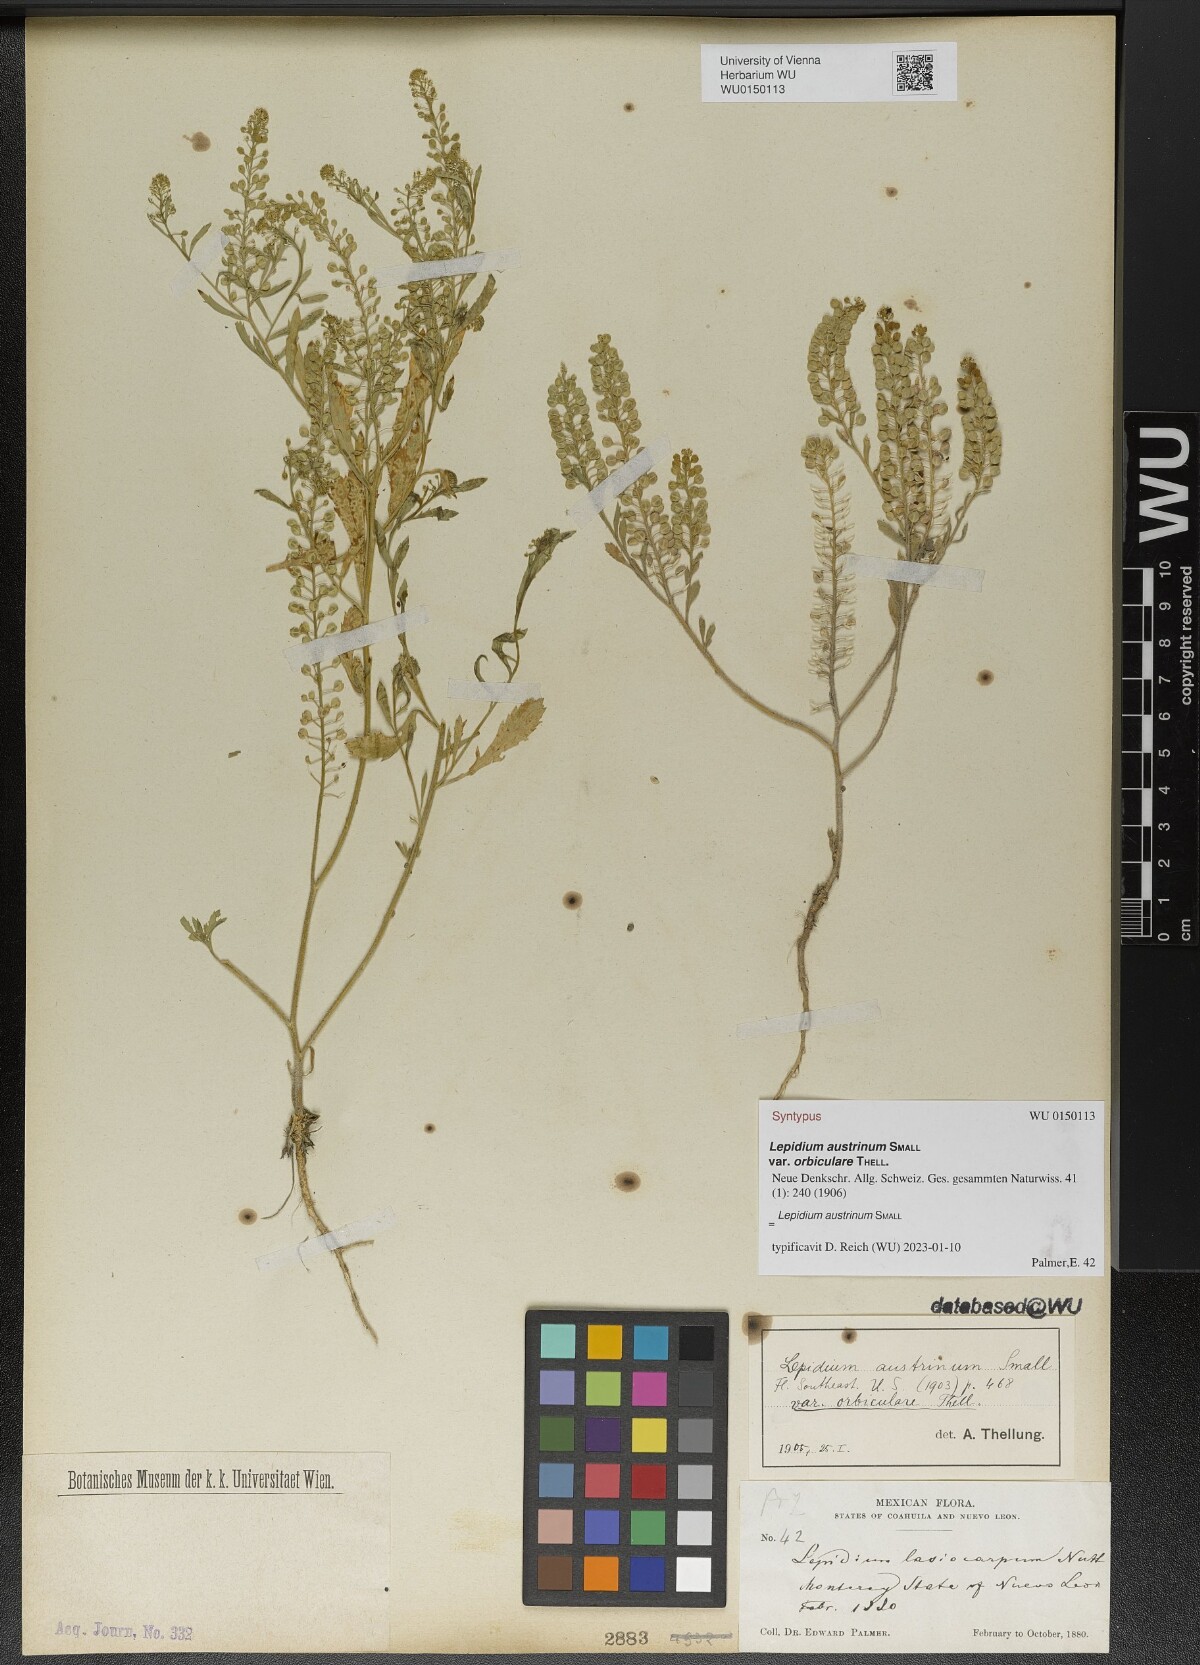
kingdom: Plantae
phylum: Tracheophyta
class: Magnoliopsida
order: Brassicales
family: Brassicaceae
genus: Lepidium
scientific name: Lepidium austrinum
